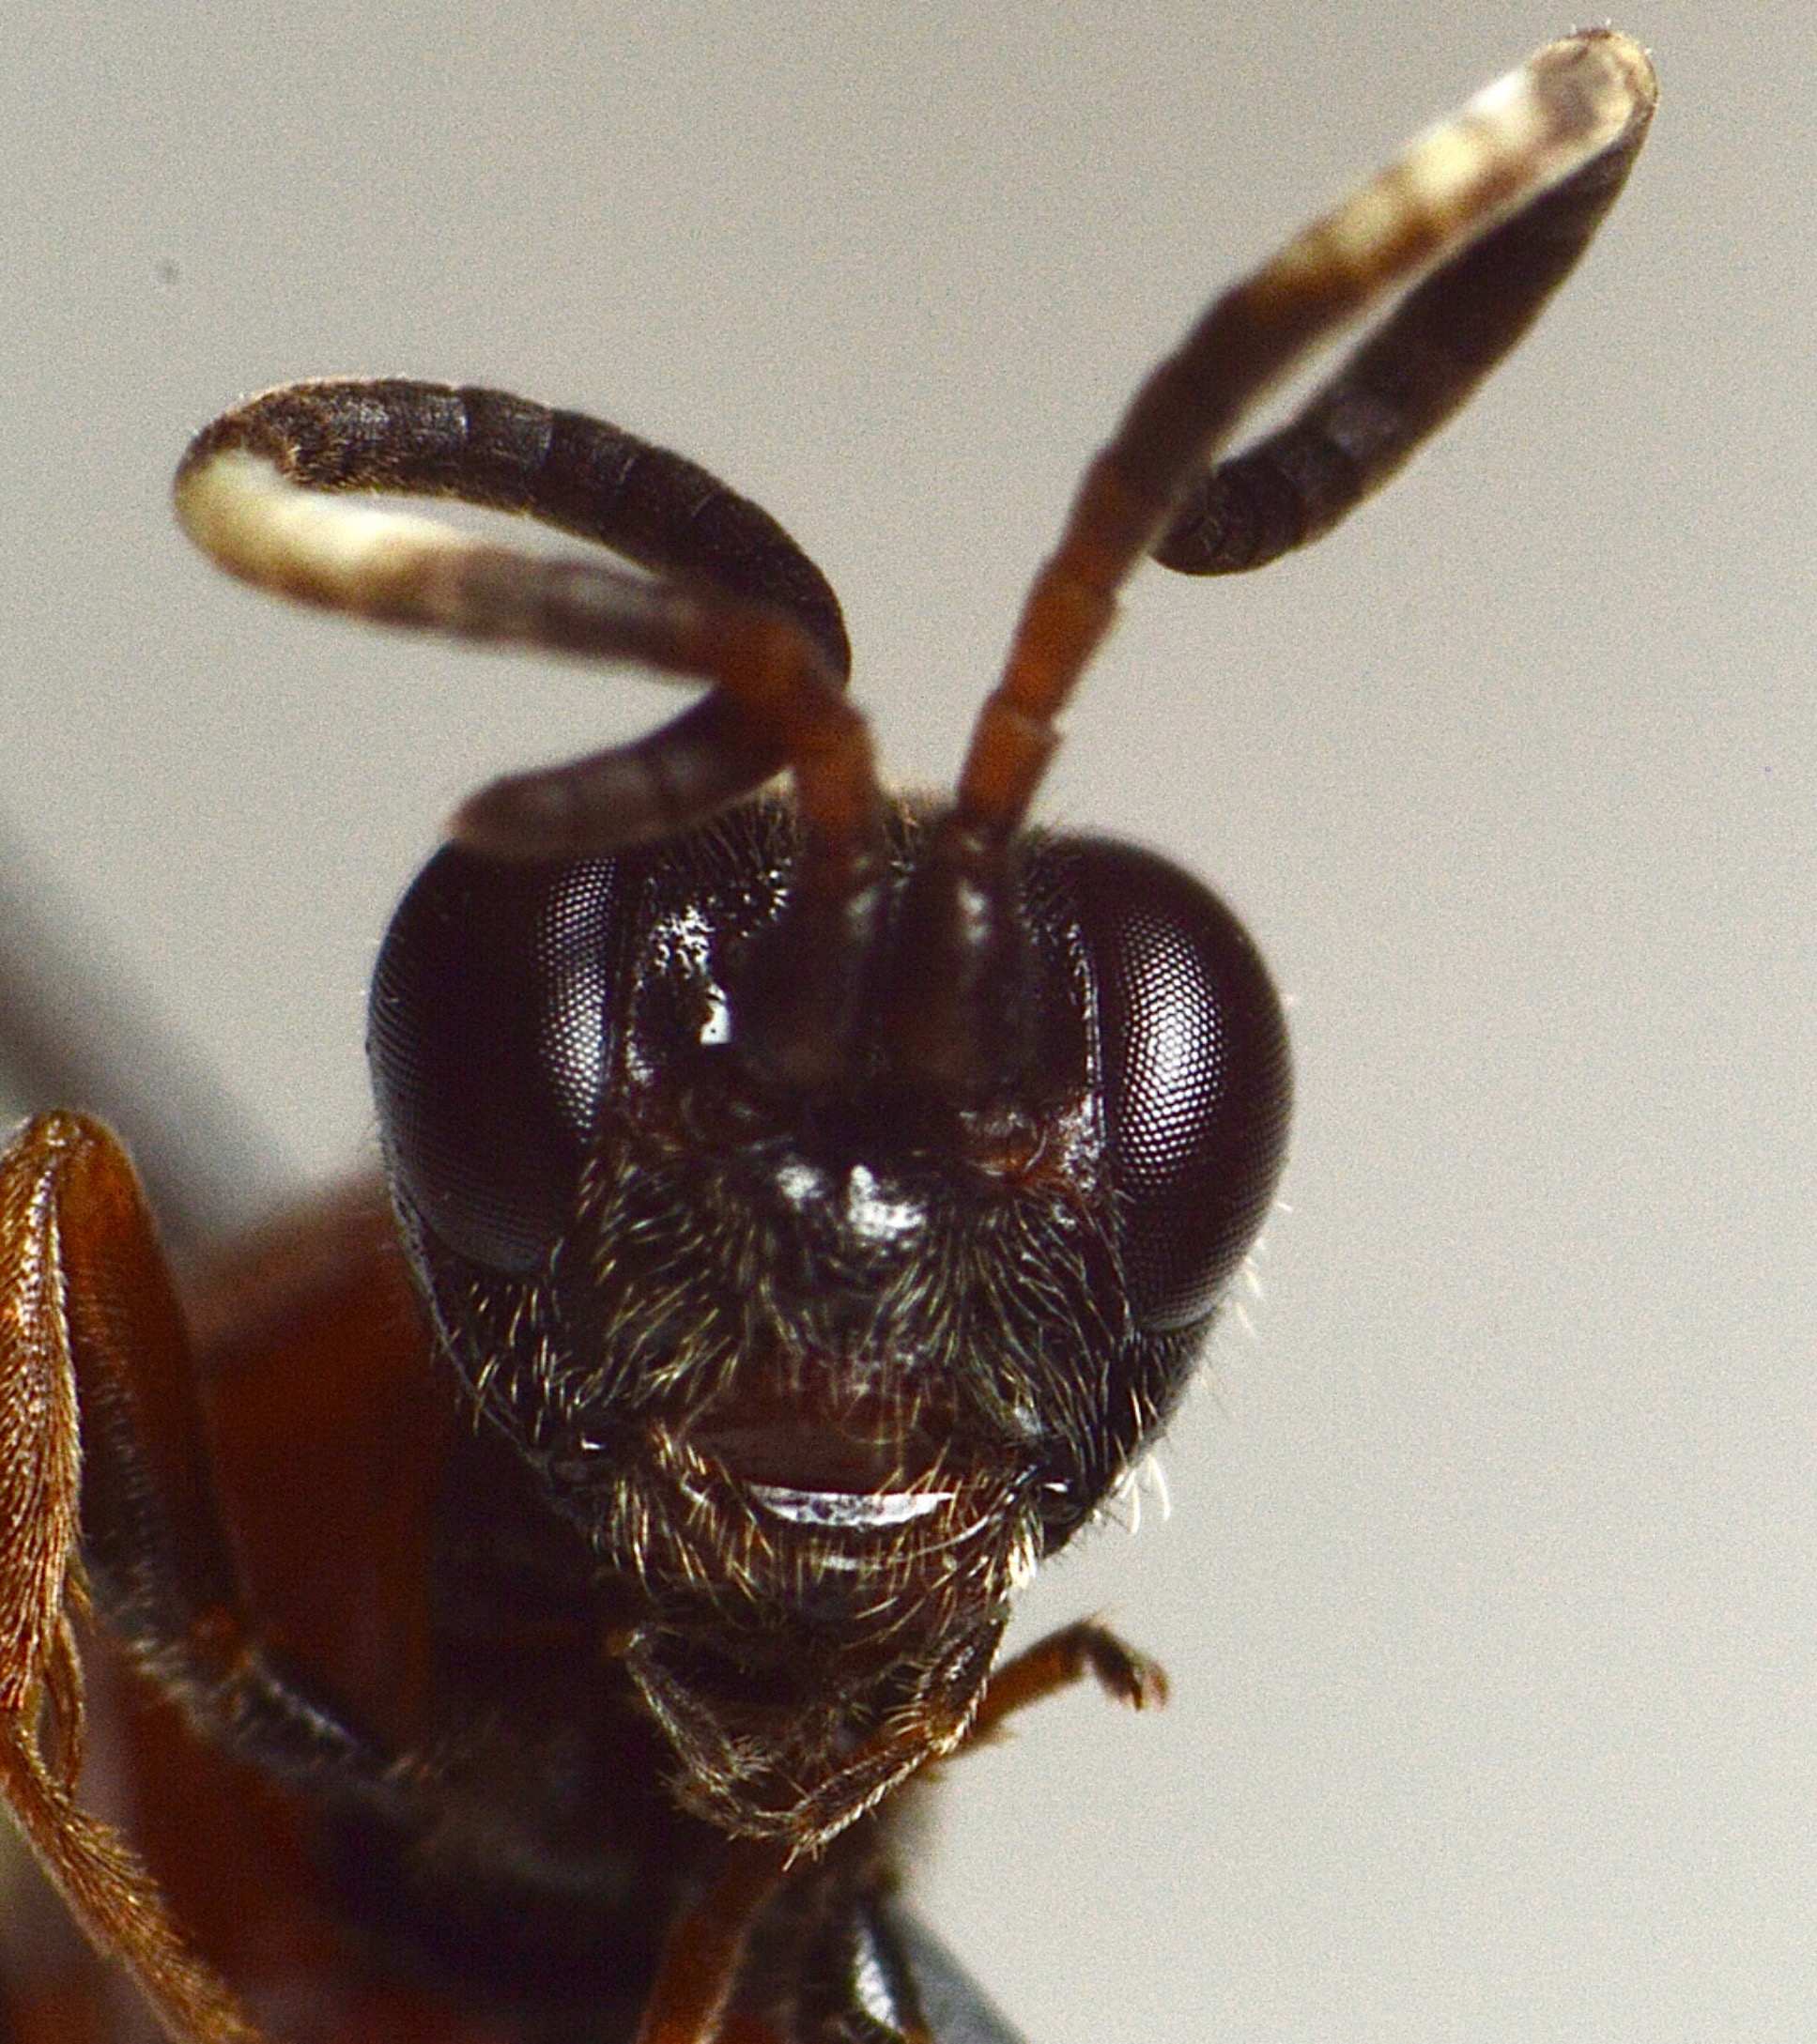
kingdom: Animalia
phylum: Arthropoda
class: Insecta
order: Hymenoptera
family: Ichneumonidae
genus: Aptesis
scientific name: Aptesis flagitator
